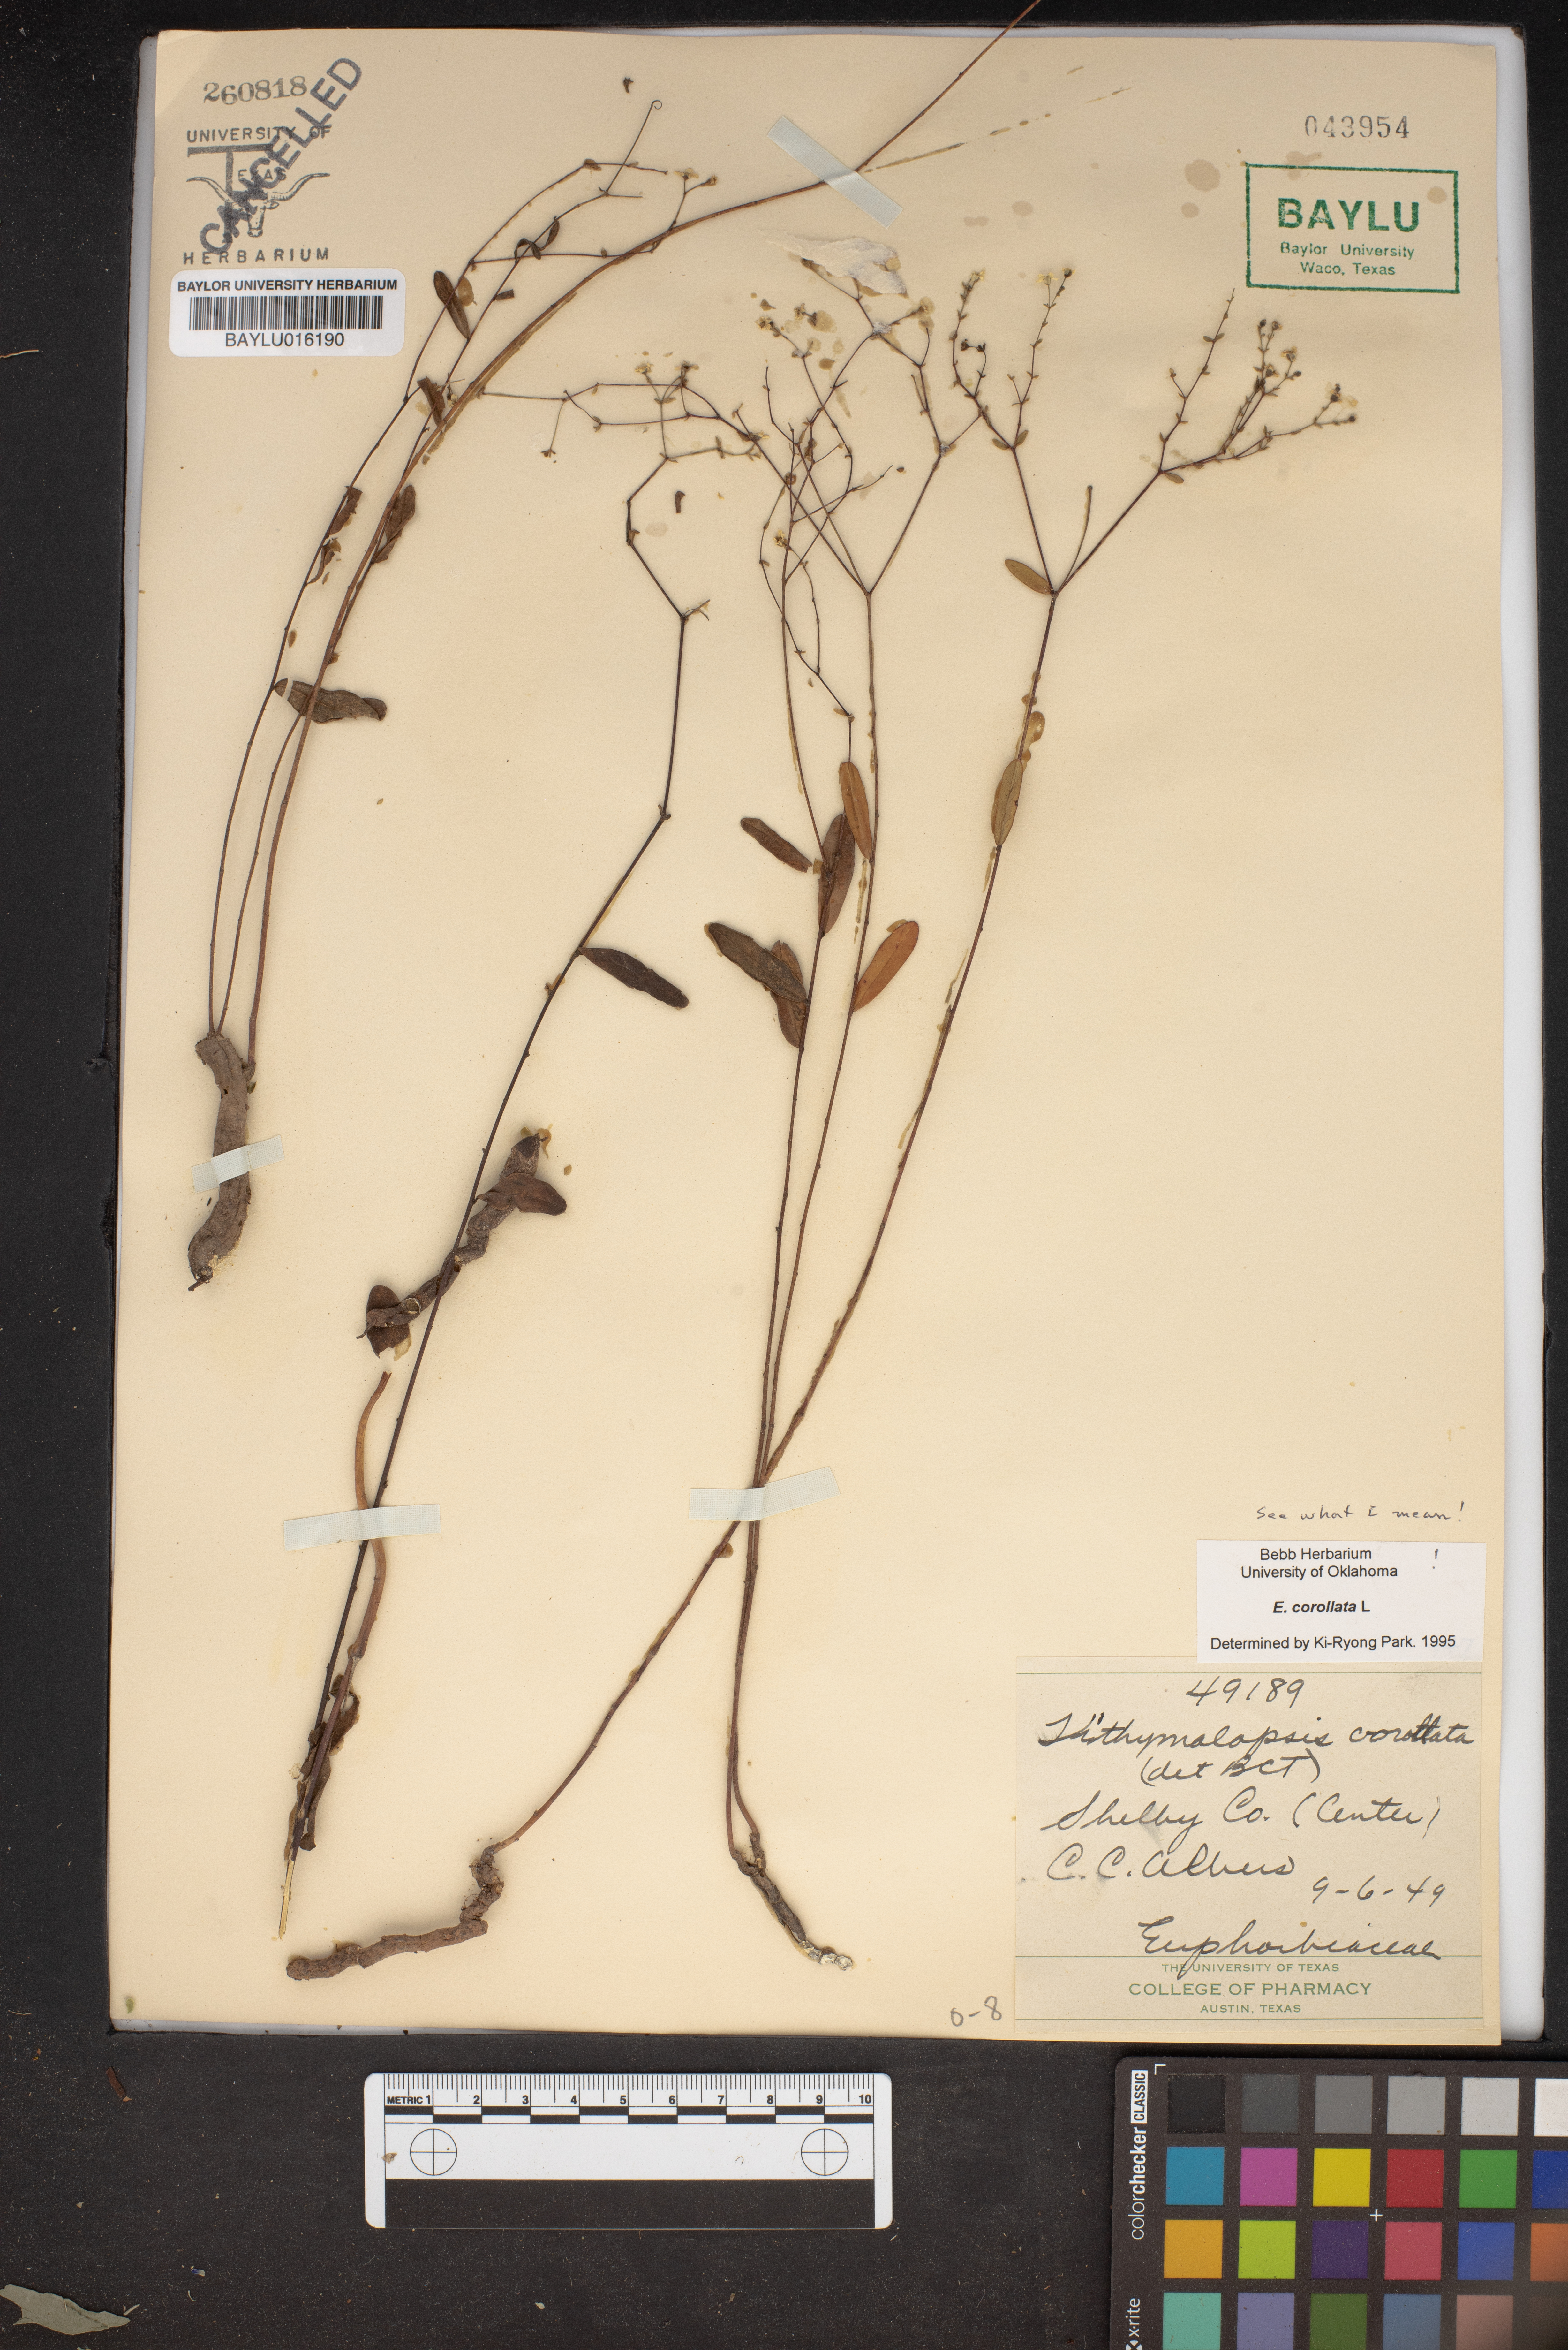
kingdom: Plantae
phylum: Tracheophyta
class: Magnoliopsida
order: Malpighiales
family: Euphorbiaceae
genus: Euphorbia
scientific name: Euphorbia corollata
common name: Flowering spurge
